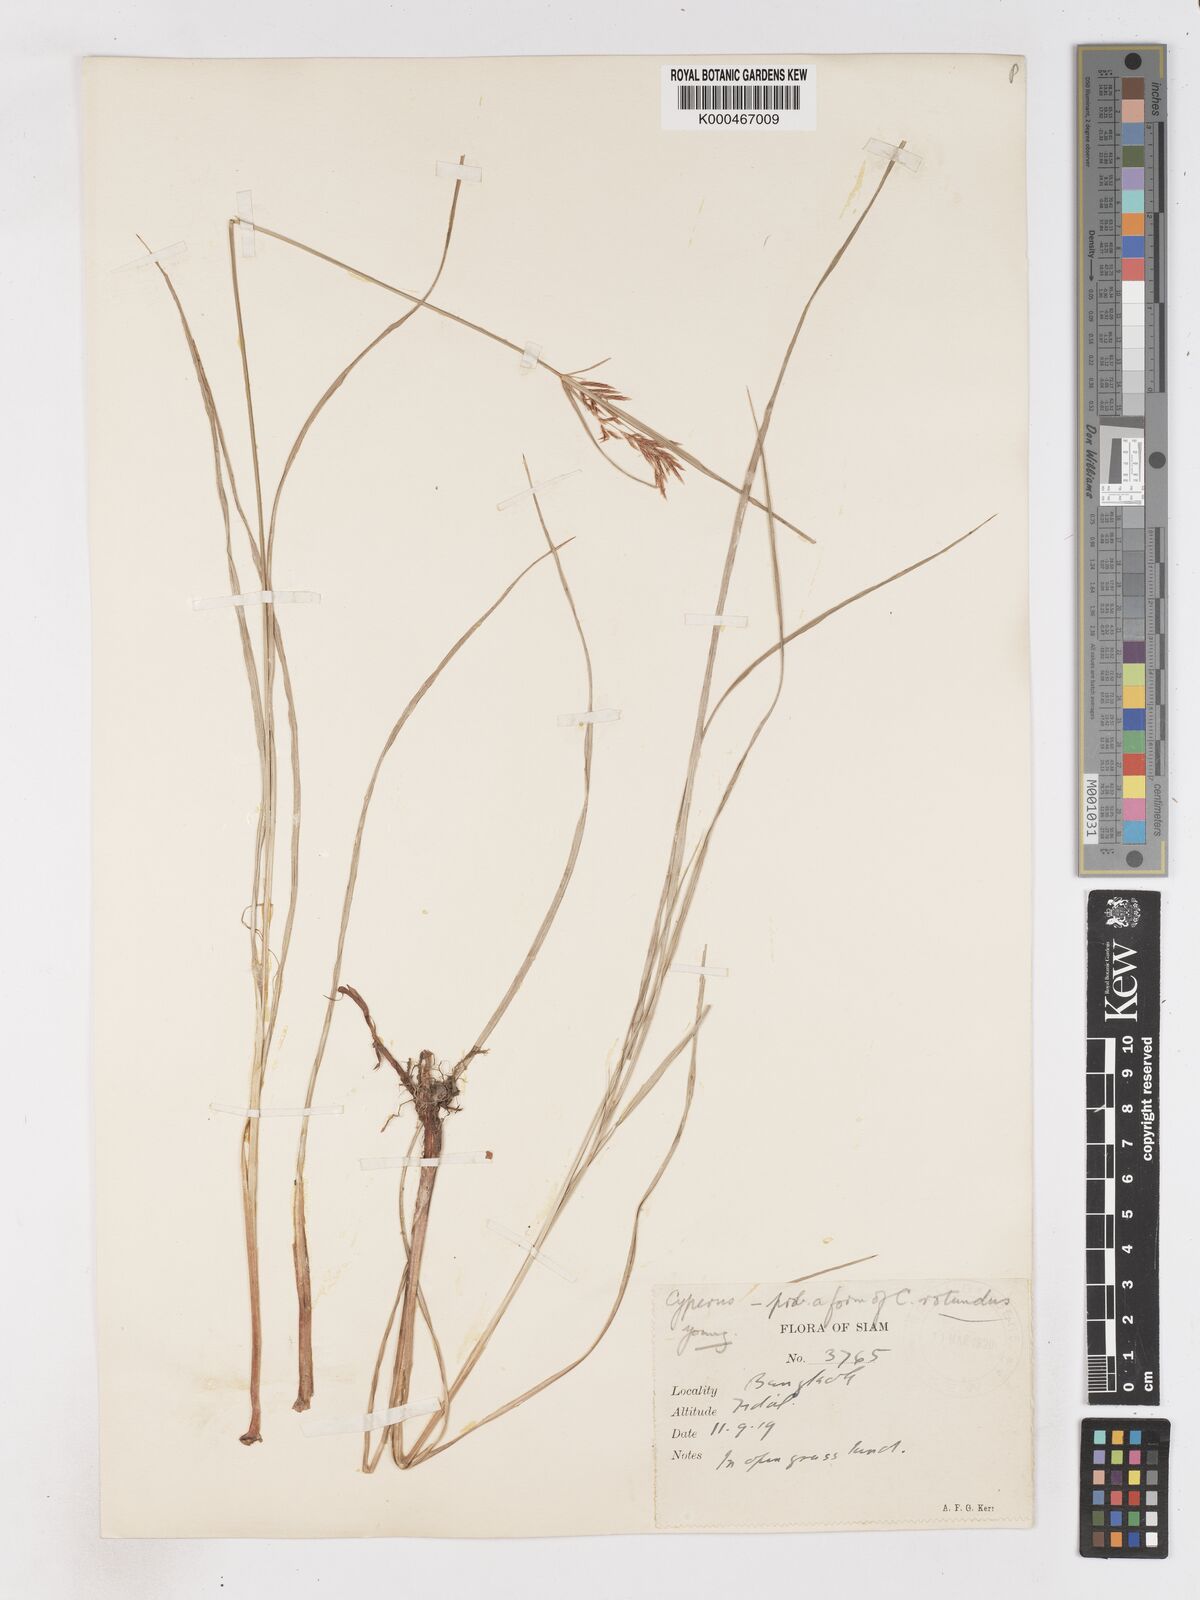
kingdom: Plantae
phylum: Tracheophyta
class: Liliopsida
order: Poales
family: Cyperaceae
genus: Cyperus
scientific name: Cyperus rotundus
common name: Nutgrass
